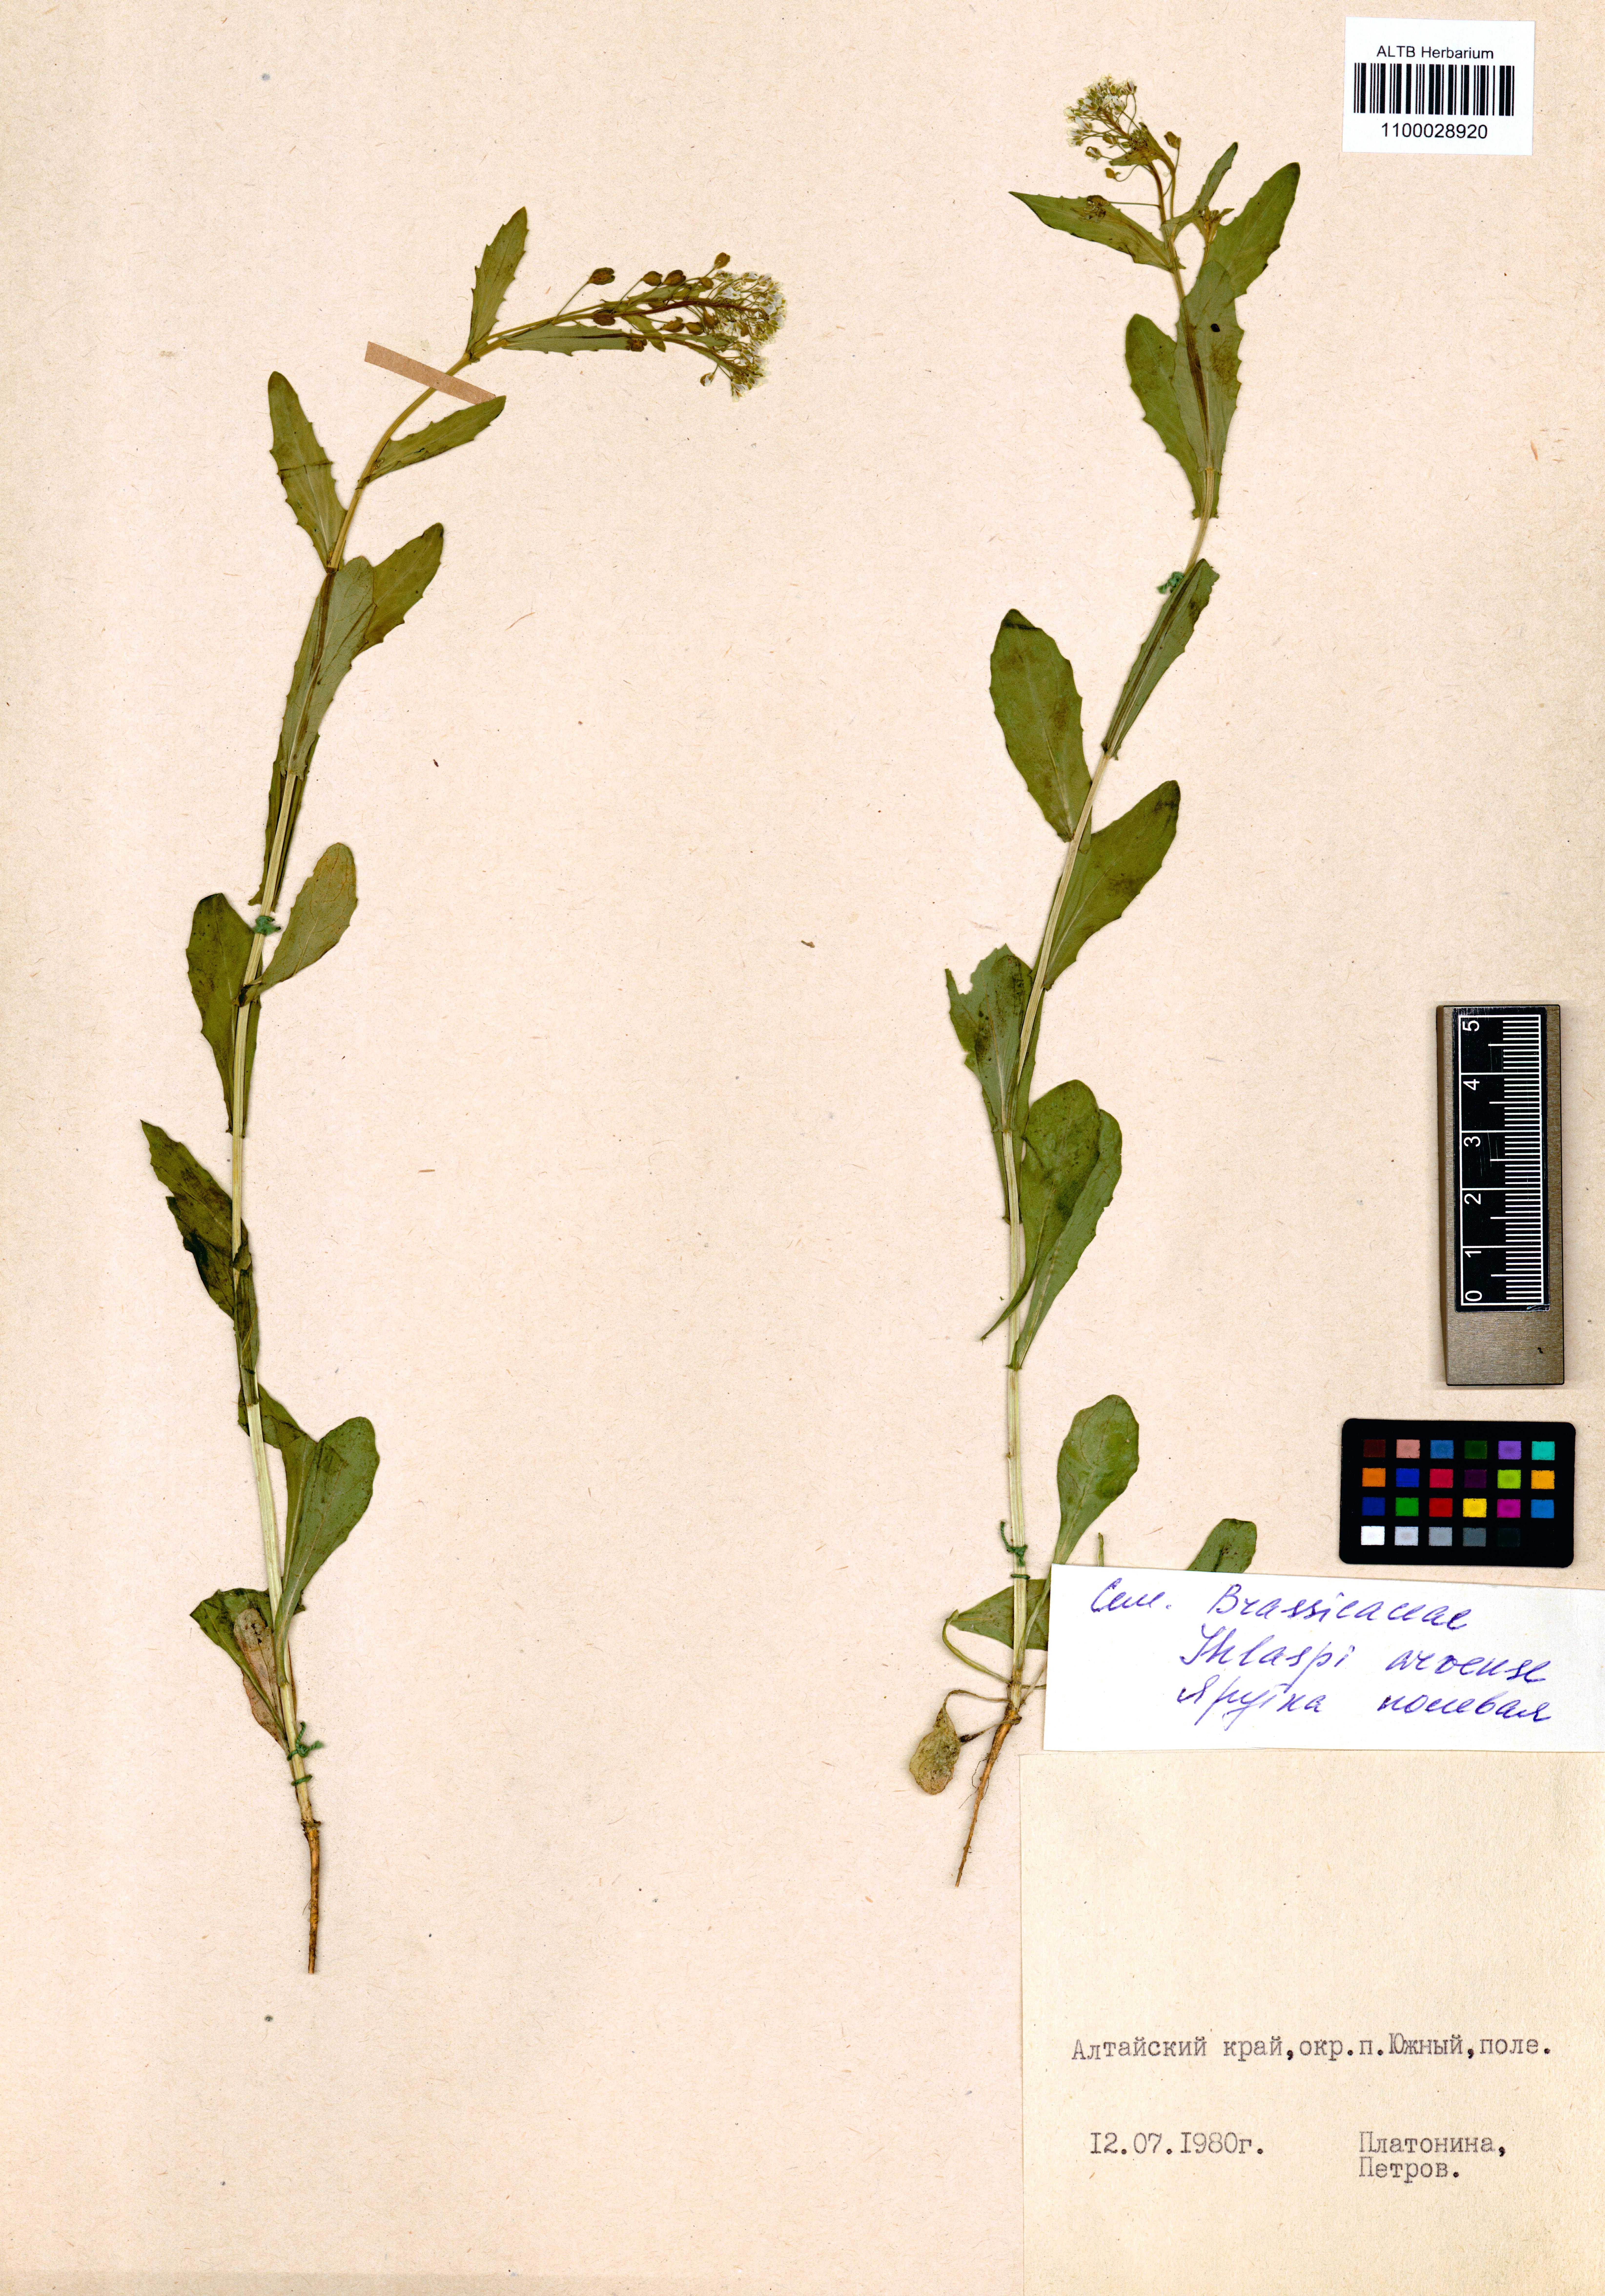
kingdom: Plantae
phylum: Tracheophyta
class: Magnoliopsida
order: Brassicales
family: Brassicaceae
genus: Thlaspi
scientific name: Thlaspi arvense
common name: Field pennycress
